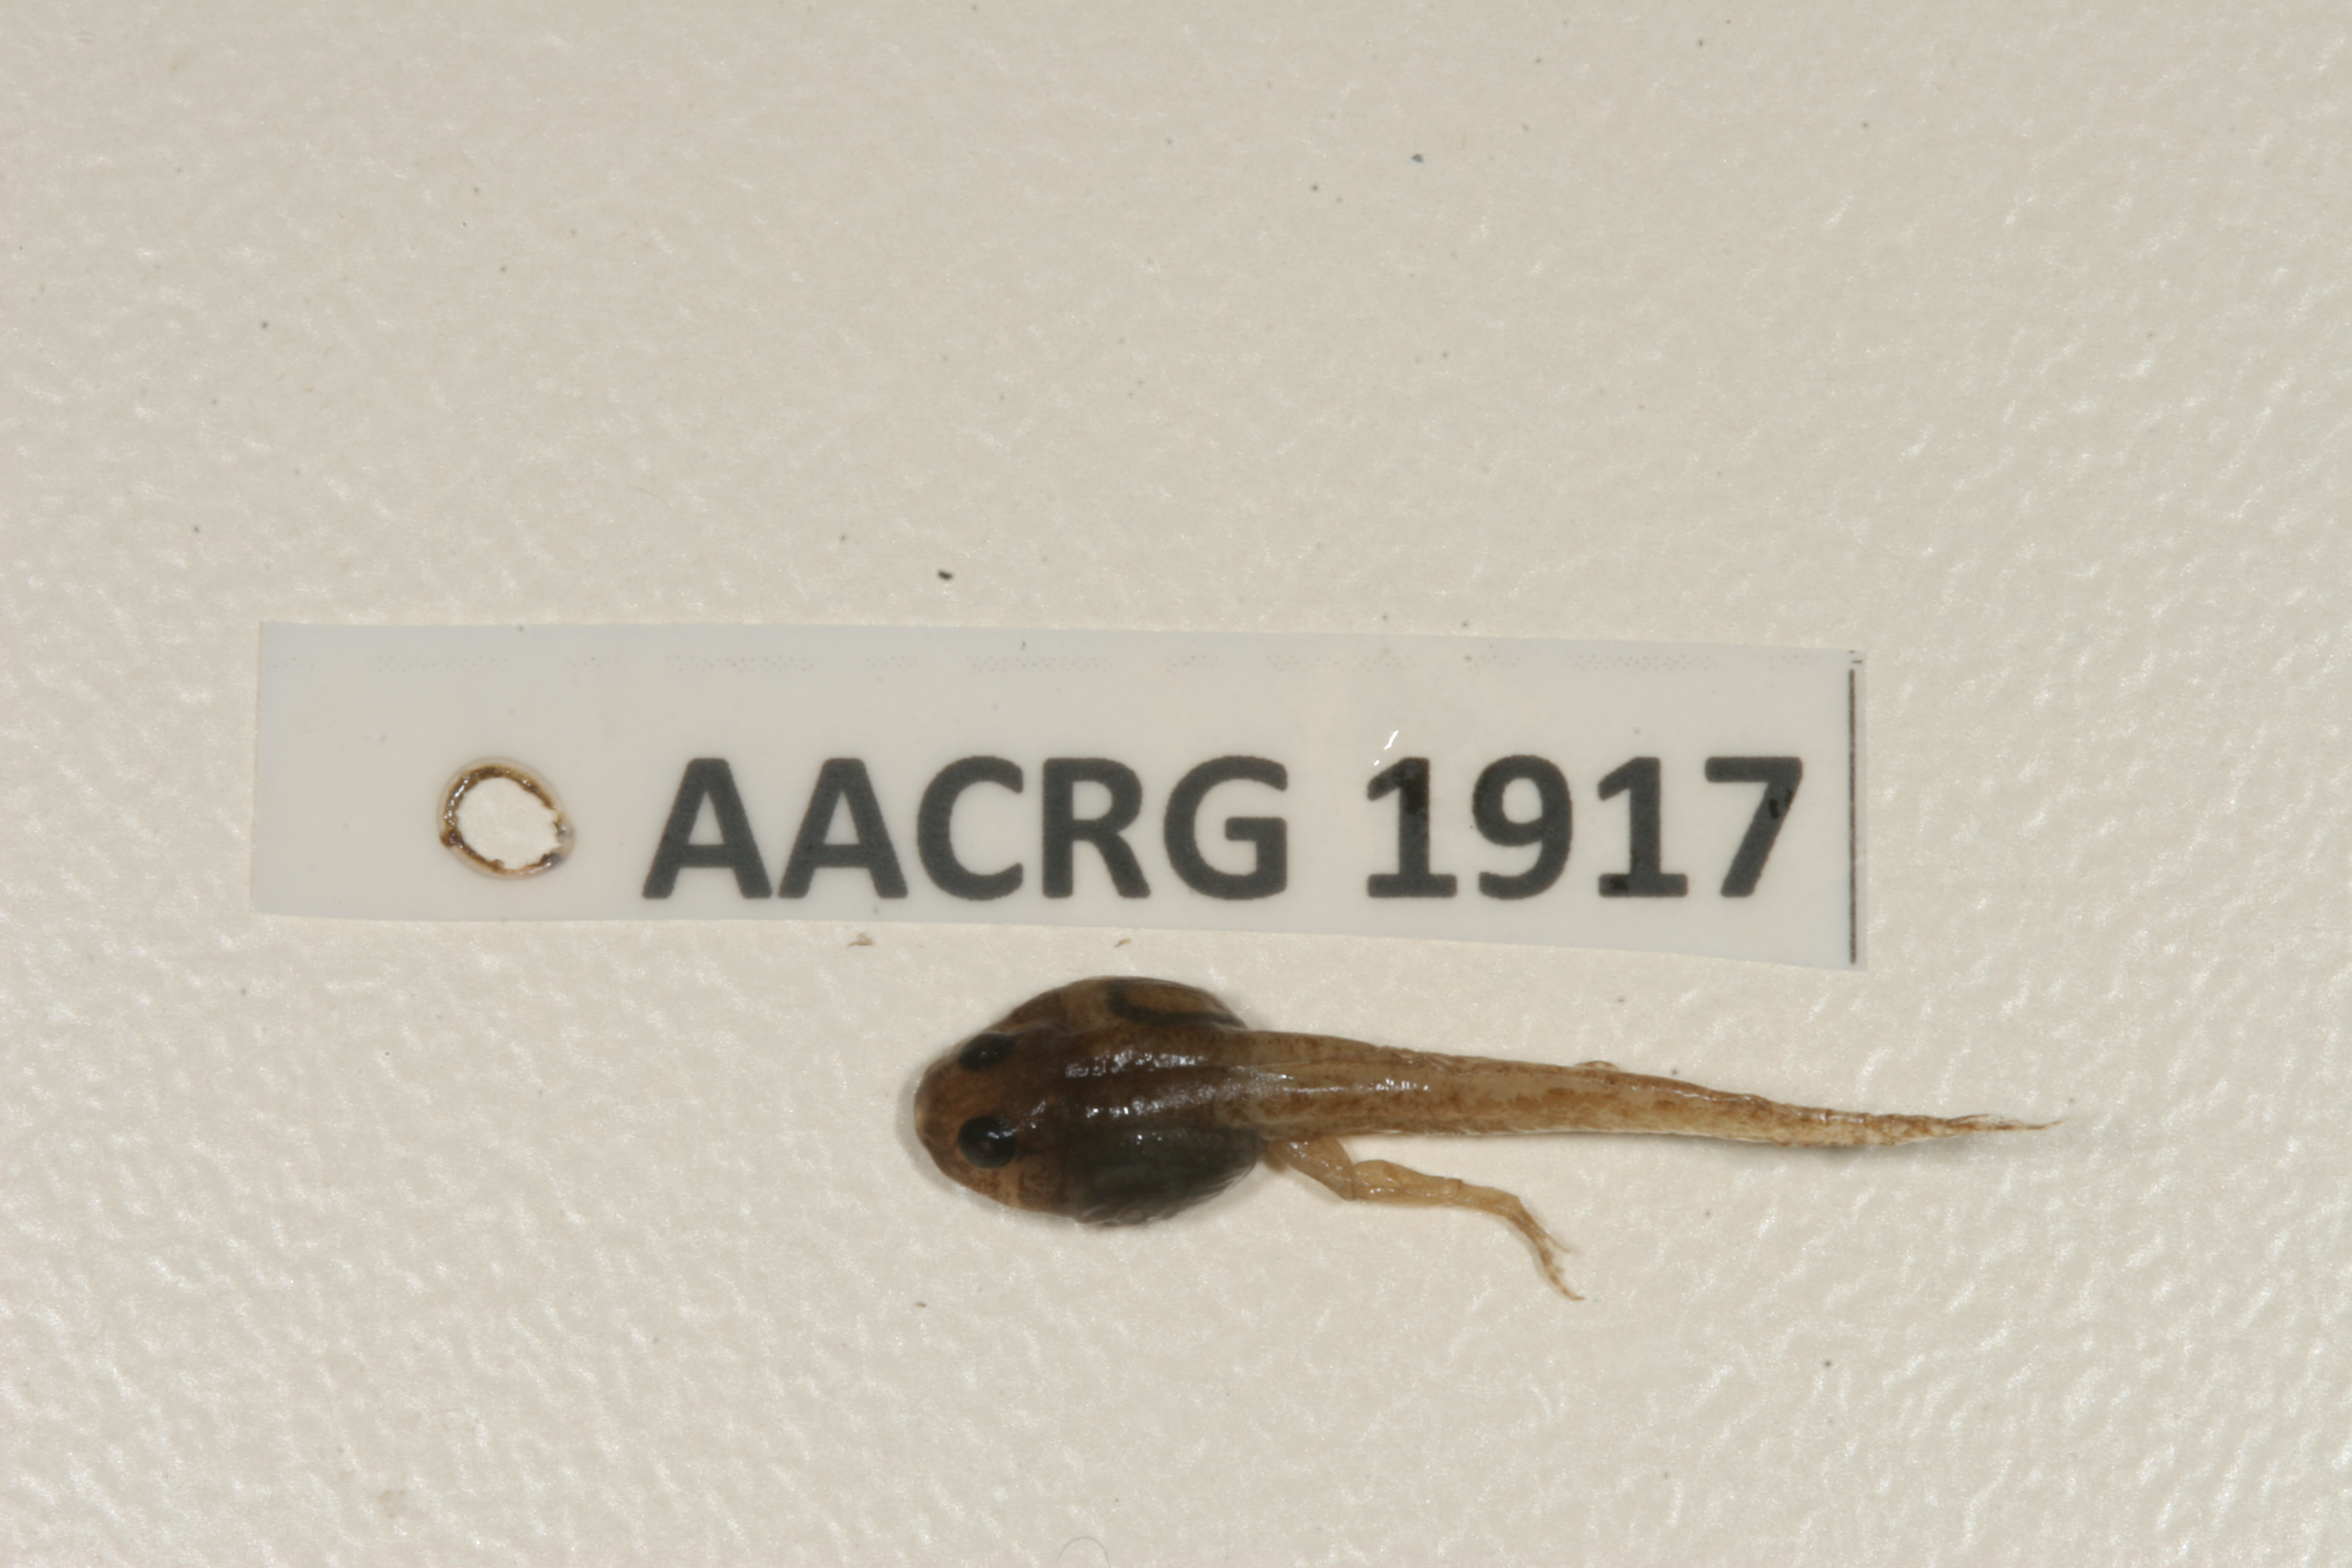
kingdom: Animalia
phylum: Chordata
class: Amphibia
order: Anura
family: Phrynobatrachidae
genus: Phrynobatrachus
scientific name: Phrynobatrachus mababiensis
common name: Dwarf puddle frog
